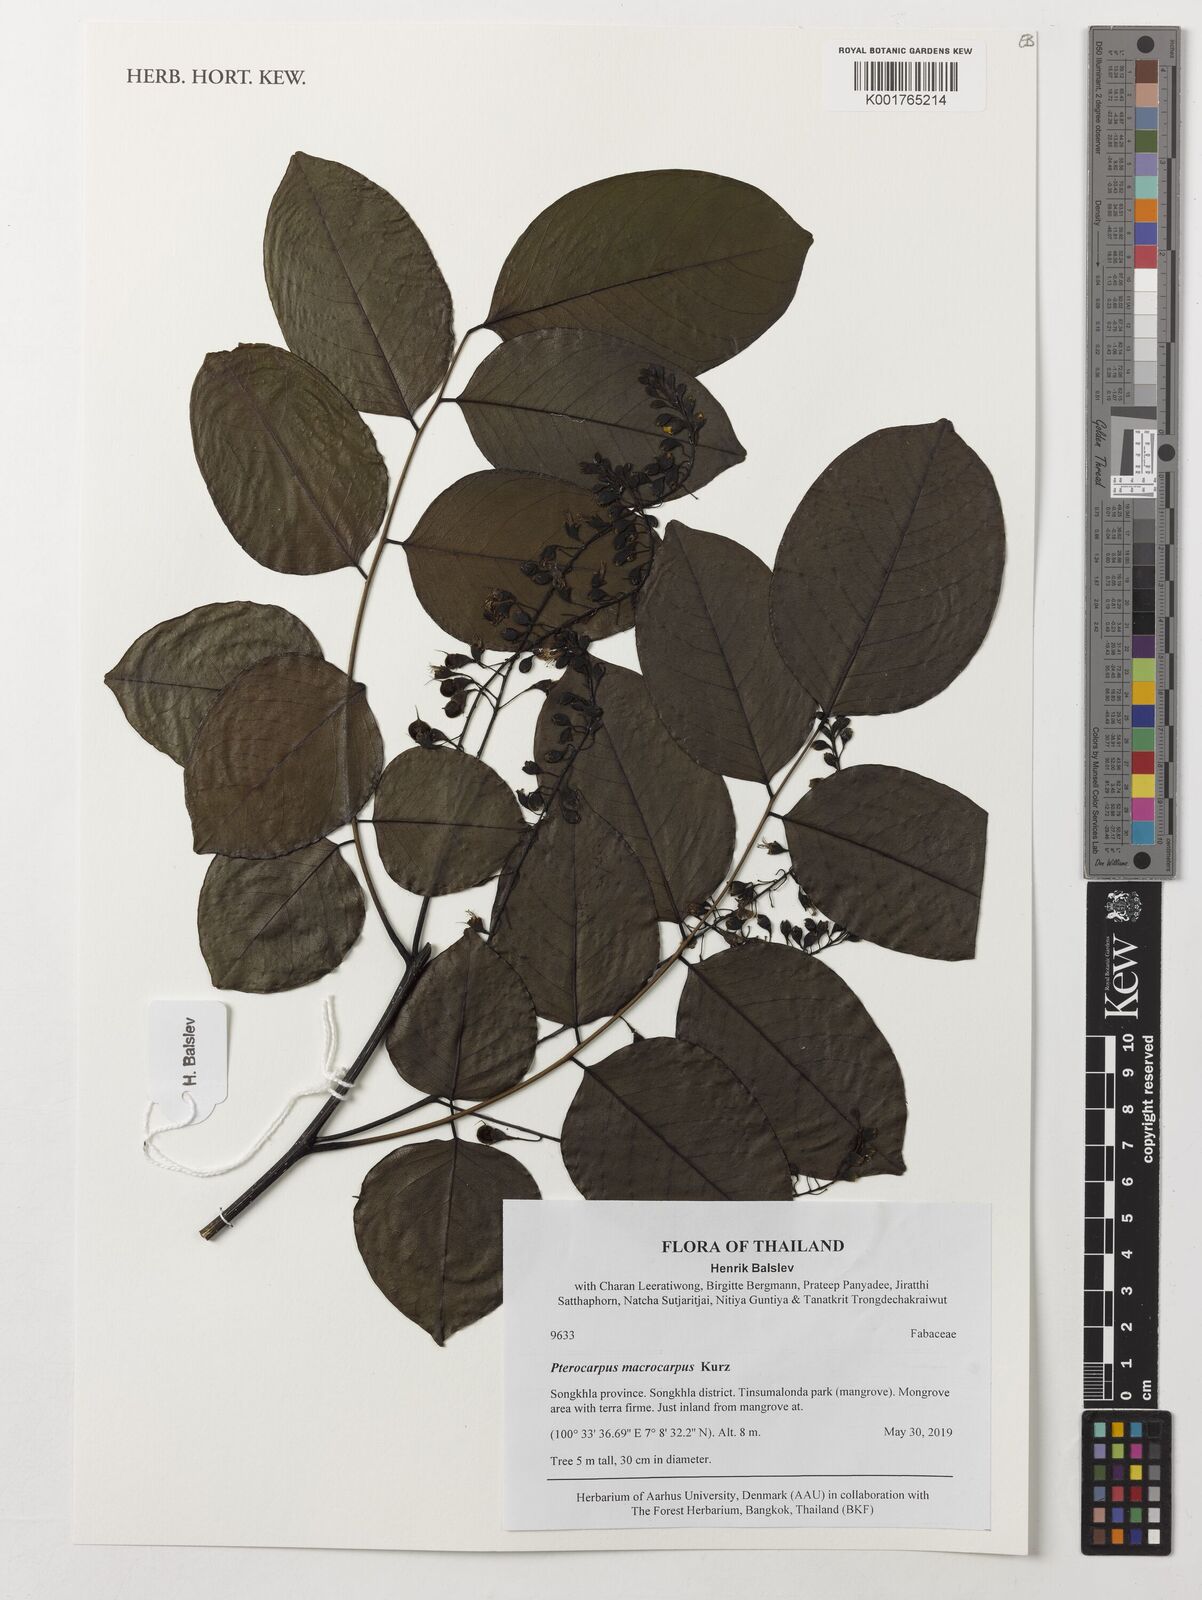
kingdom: Plantae
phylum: Tracheophyta
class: Magnoliopsida
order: Fabales
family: Fabaceae
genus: Pterocarpus
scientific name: Pterocarpus macrocarpus
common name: Burma padauk
